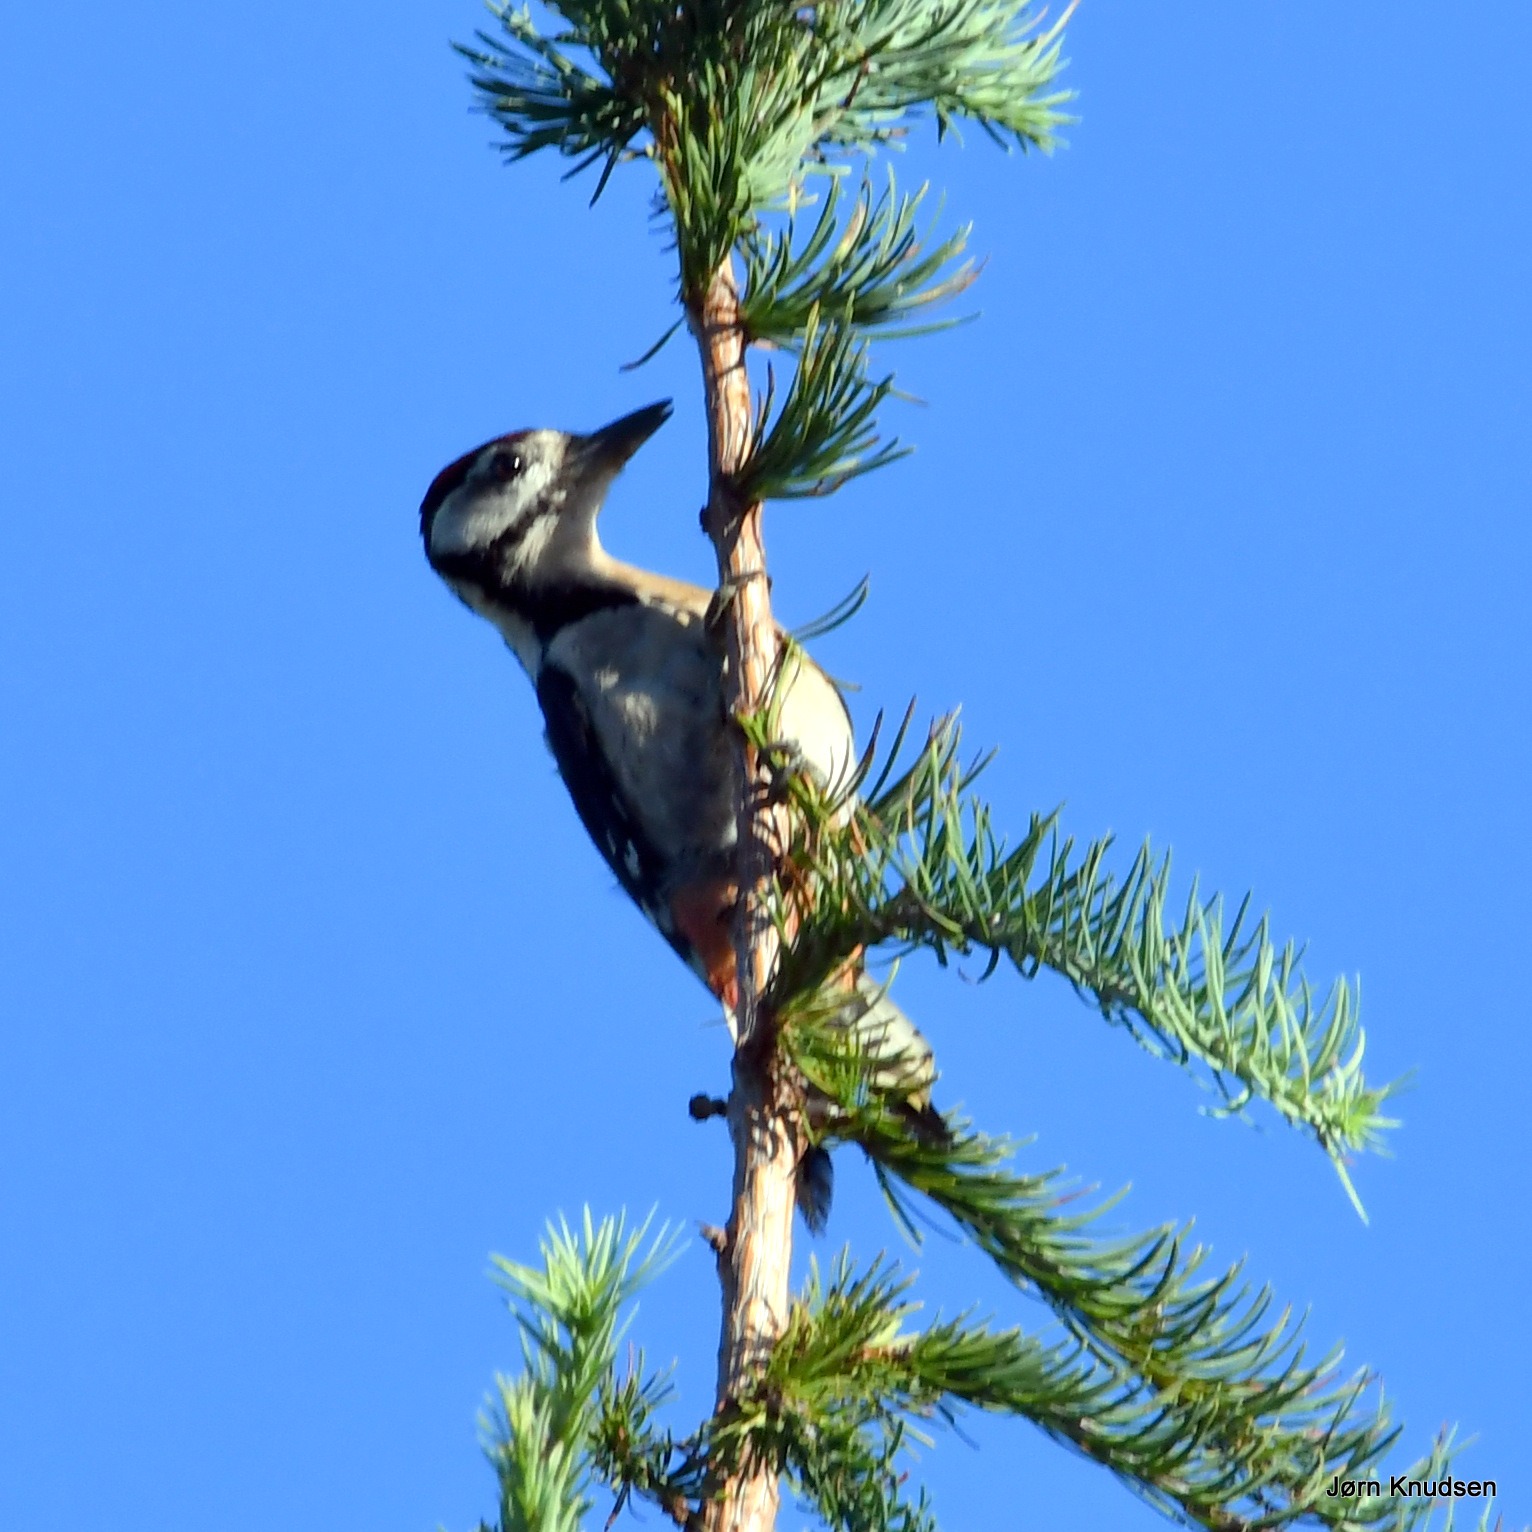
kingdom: Animalia
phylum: Chordata
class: Aves
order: Piciformes
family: Picidae
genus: Dendrocopos
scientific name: Dendrocopos major
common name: Stor flagspætte
